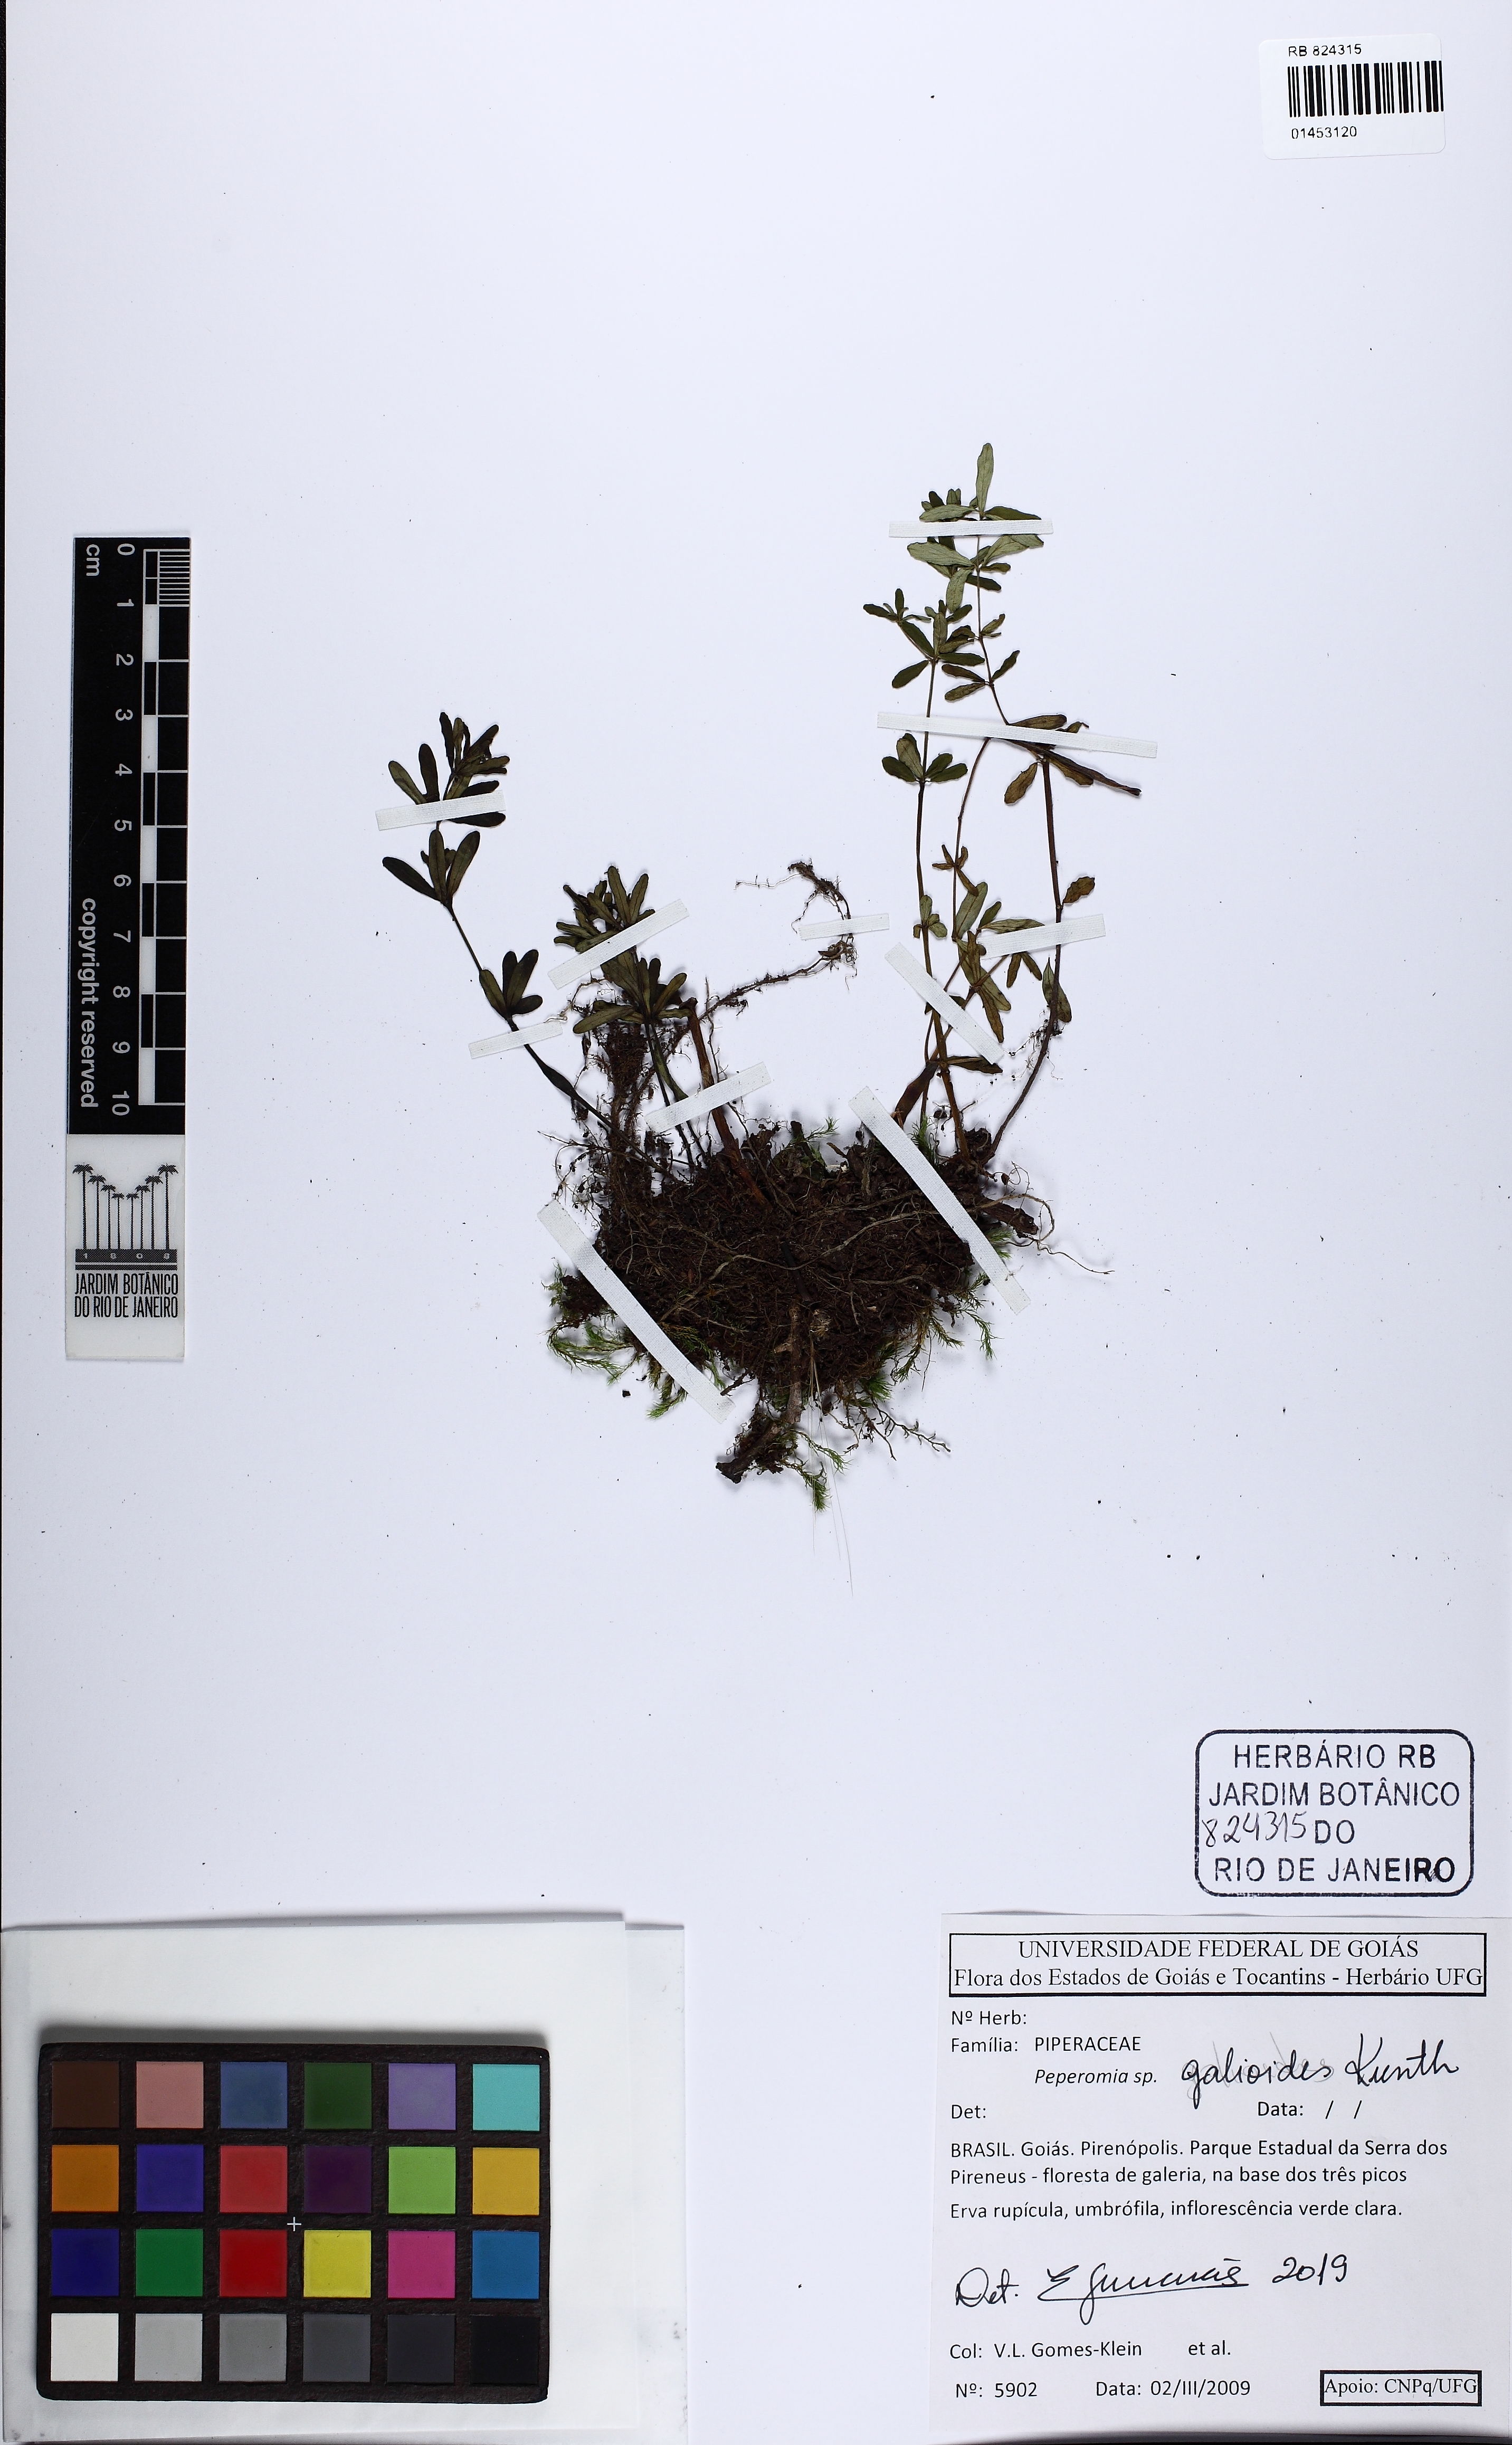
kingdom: Plantae
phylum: Tracheophyta
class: Magnoliopsida
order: Piperales
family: Piperaceae
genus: Peperomia
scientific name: Peperomia galioides
